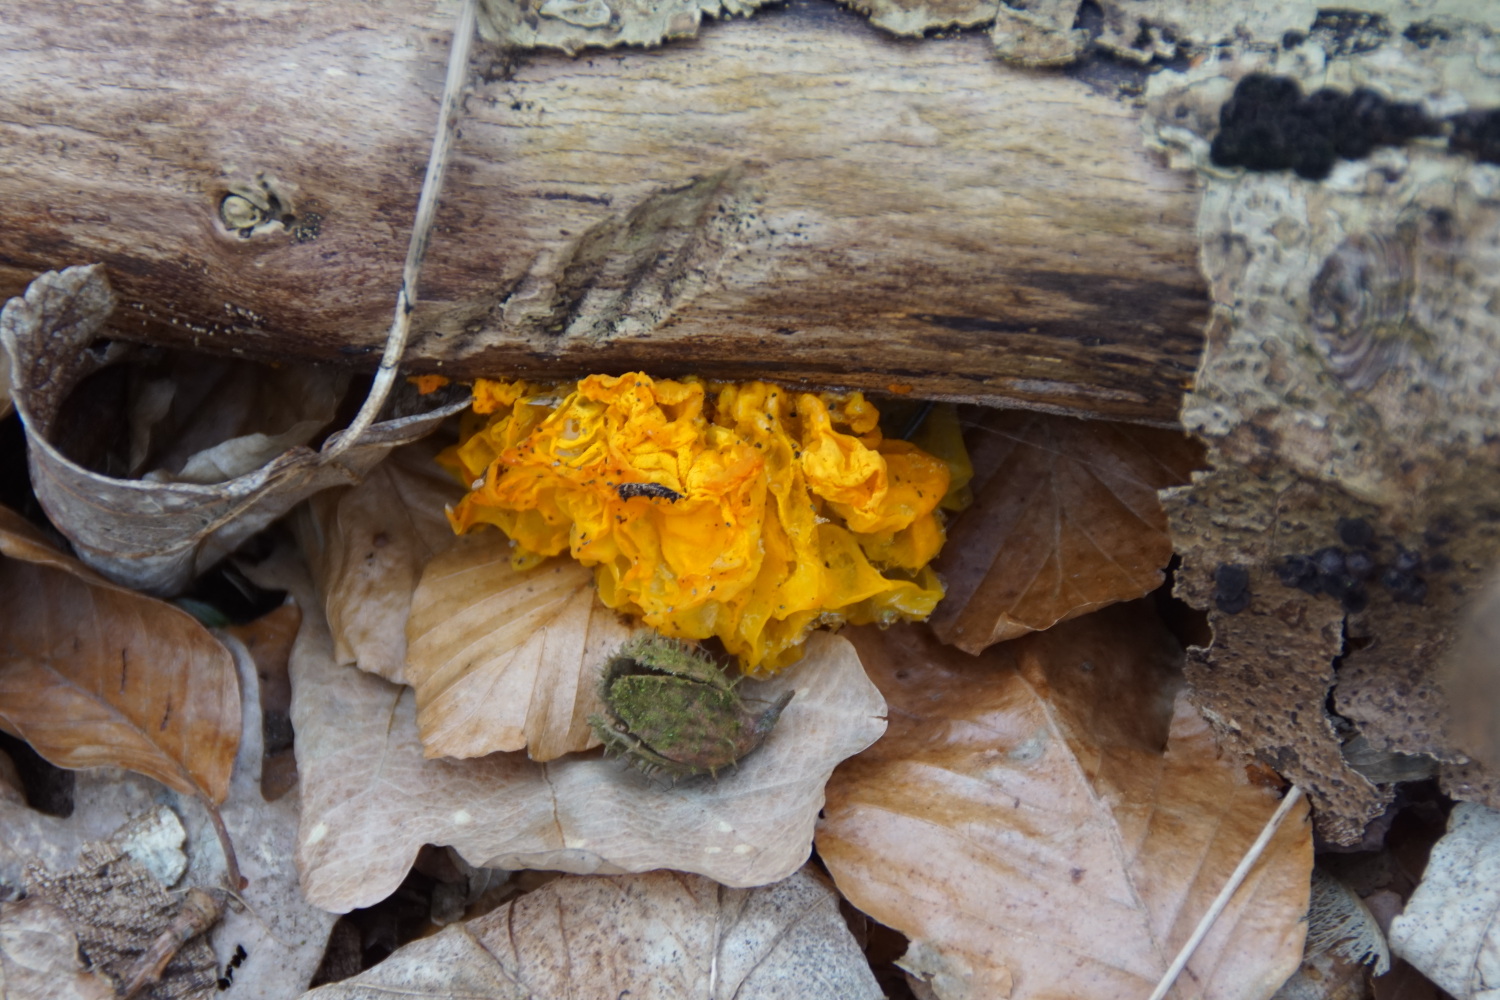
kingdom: Fungi
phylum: Basidiomycota
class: Tremellomycetes
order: Tremellales
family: Tremellaceae
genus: Tremella
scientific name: Tremella mesenterica
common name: gul bævresvamp
